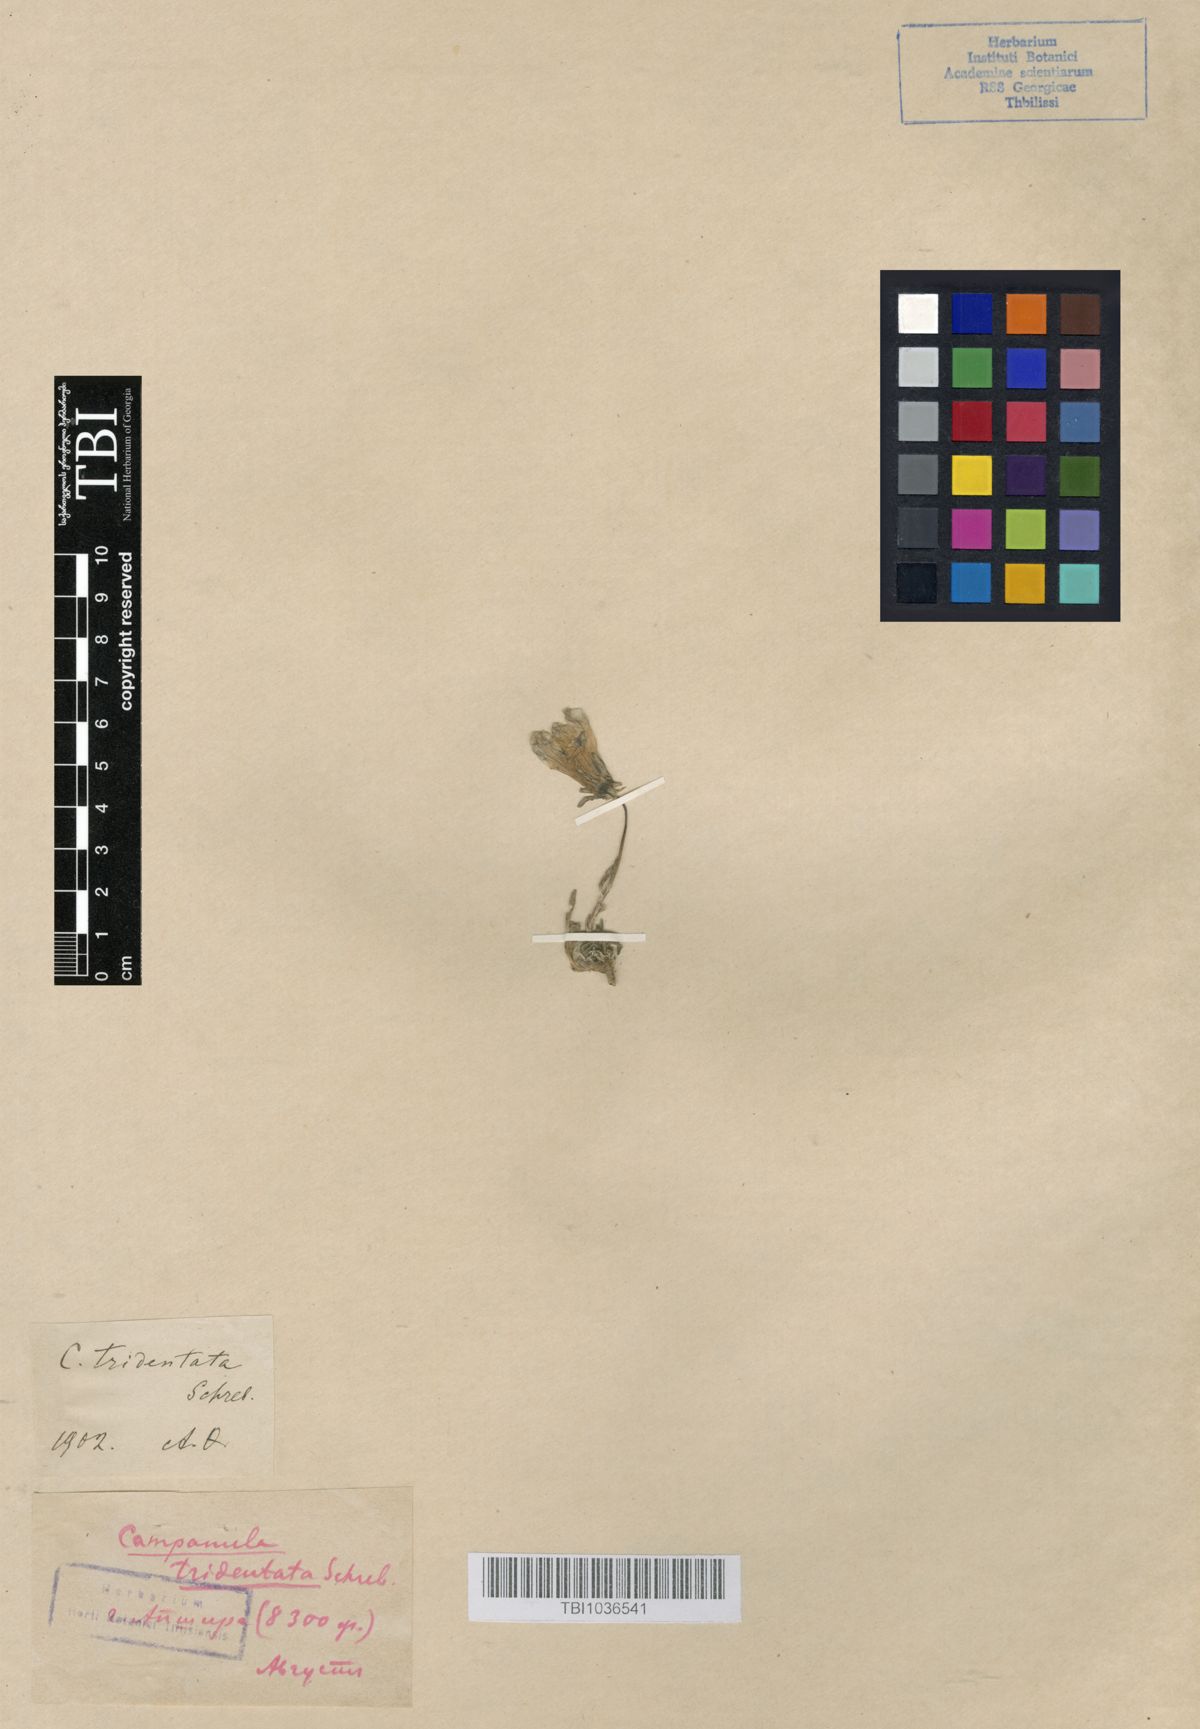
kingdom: Plantae
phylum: Tracheophyta
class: Magnoliopsida
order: Asterales
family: Campanulaceae
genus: Campanula
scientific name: Campanula tridentata
